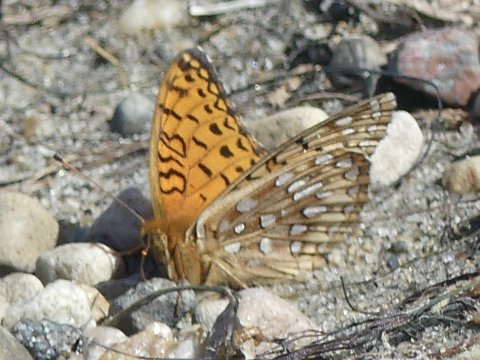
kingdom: Animalia
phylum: Arthropoda
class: Insecta
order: Lepidoptera
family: Nymphalidae
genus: Speyeria
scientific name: Speyeria atlantis
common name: Northwestern Fritillary
